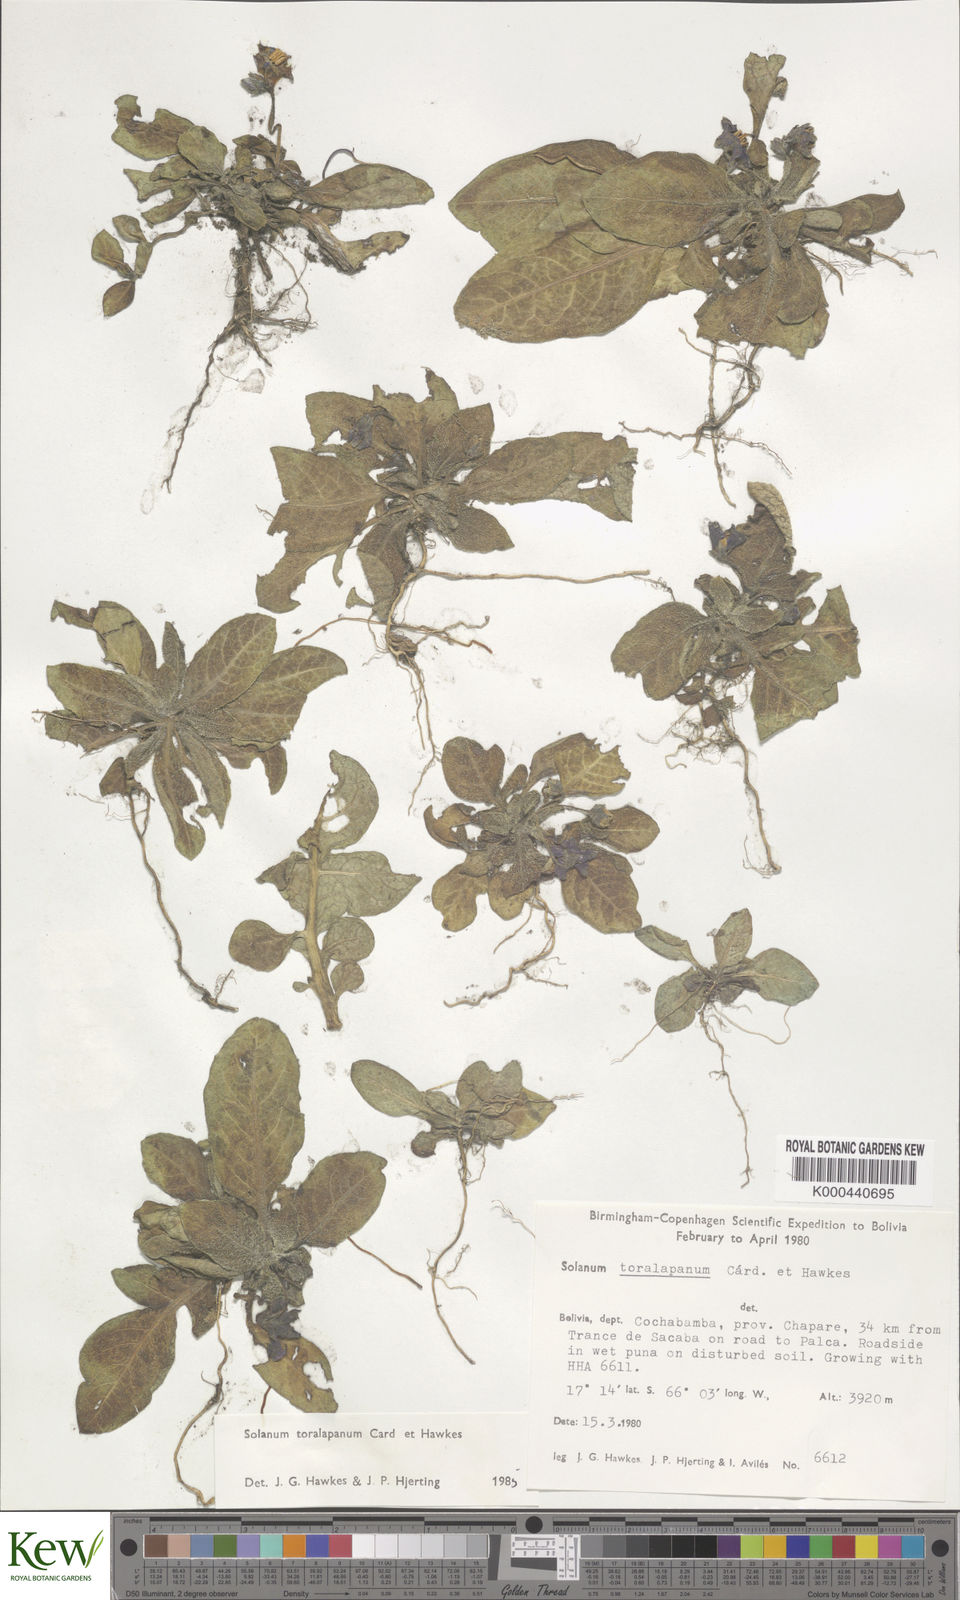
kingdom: Plantae
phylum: Tracheophyta
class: Magnoliopsida
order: Solanales
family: Solanaceae
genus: Solanum
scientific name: Solanum boliviense
